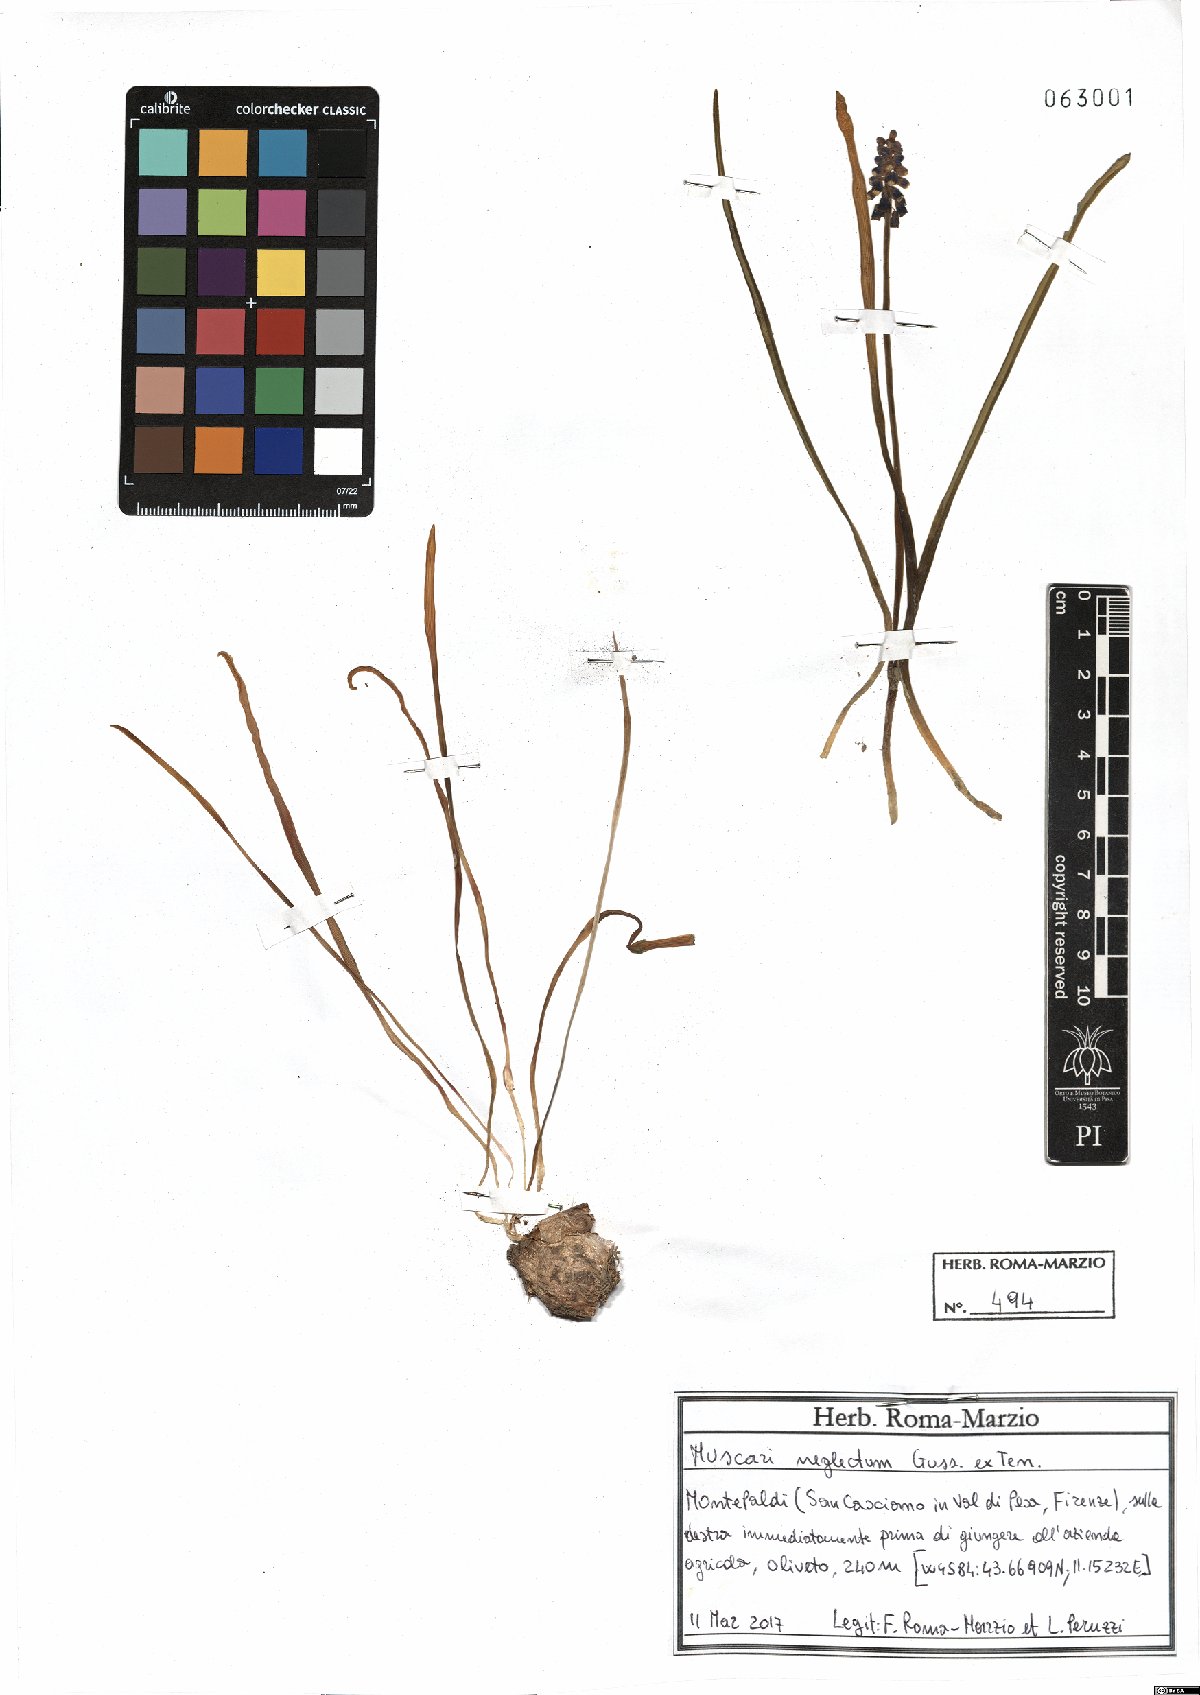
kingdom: Plantae
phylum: Tracheophyta
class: Liliopsida
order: Asparagales
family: Asparagaceae
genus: Muscari
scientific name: Muscari neglectum
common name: Grape-hyacinth
